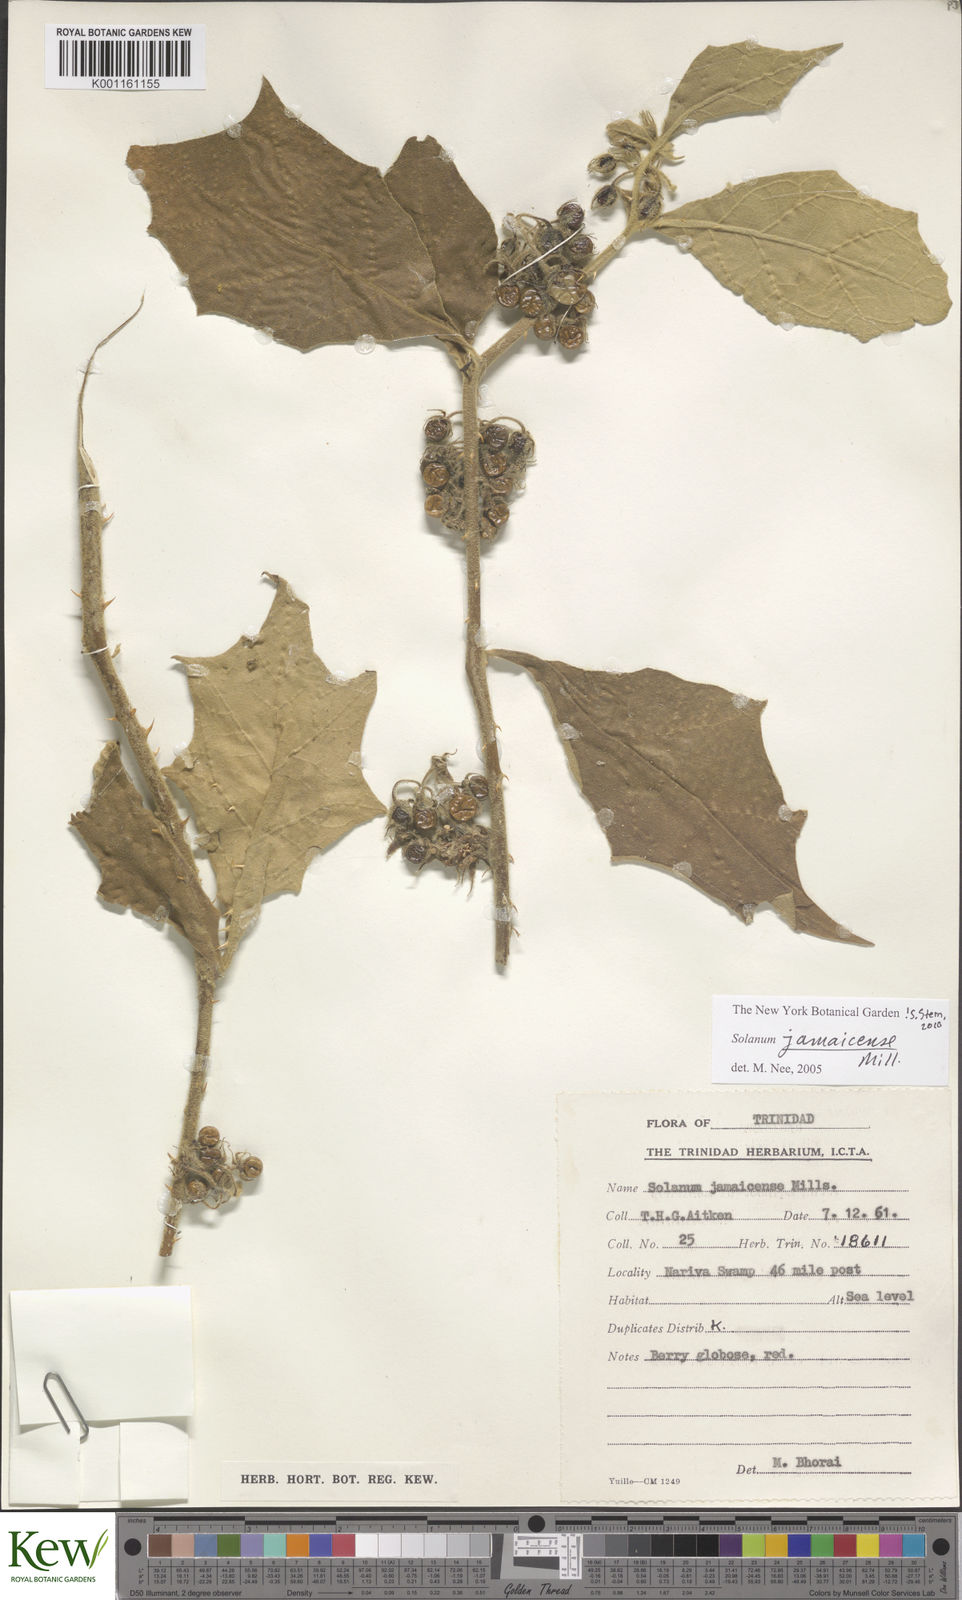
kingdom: Plantae
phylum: Tracheophyta
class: Magnoliopsida
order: Solanales
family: Solanaceae
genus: Solanum
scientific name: Solanum jamaicense
